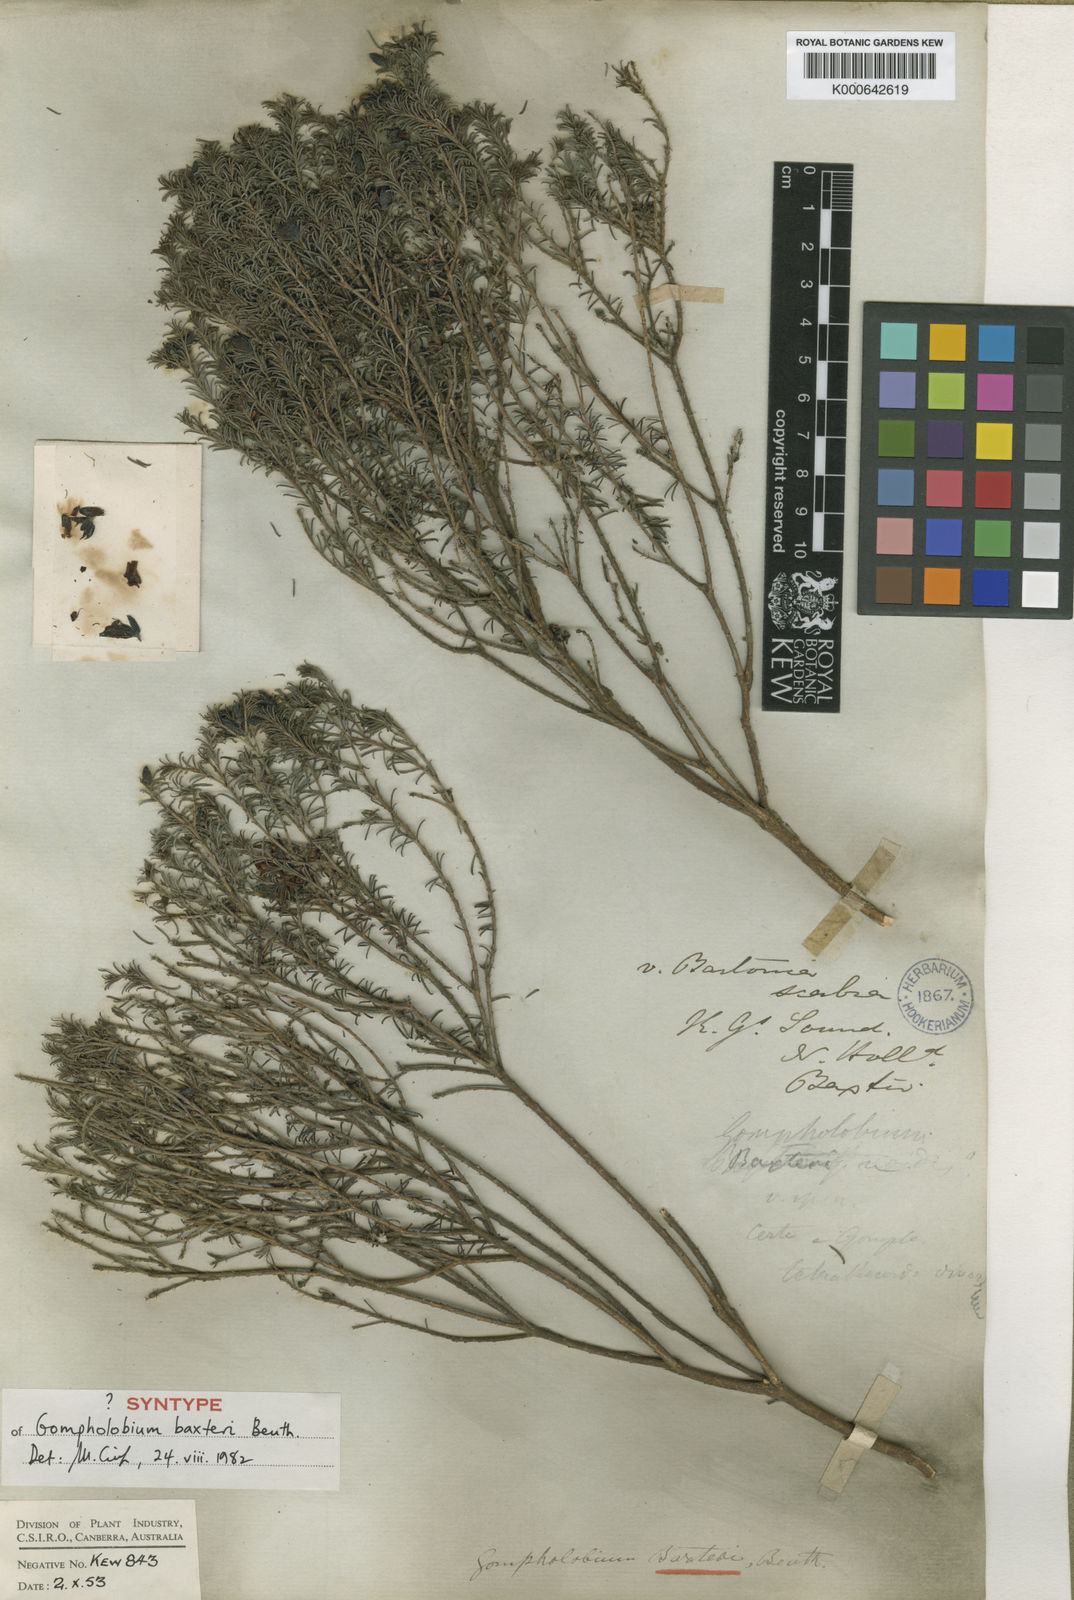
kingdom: Plantae
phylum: Tracheophyta
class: Magnoliopsida
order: Fabales
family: Fabaceae
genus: Gompholobium
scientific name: Gompholobium baxteri
